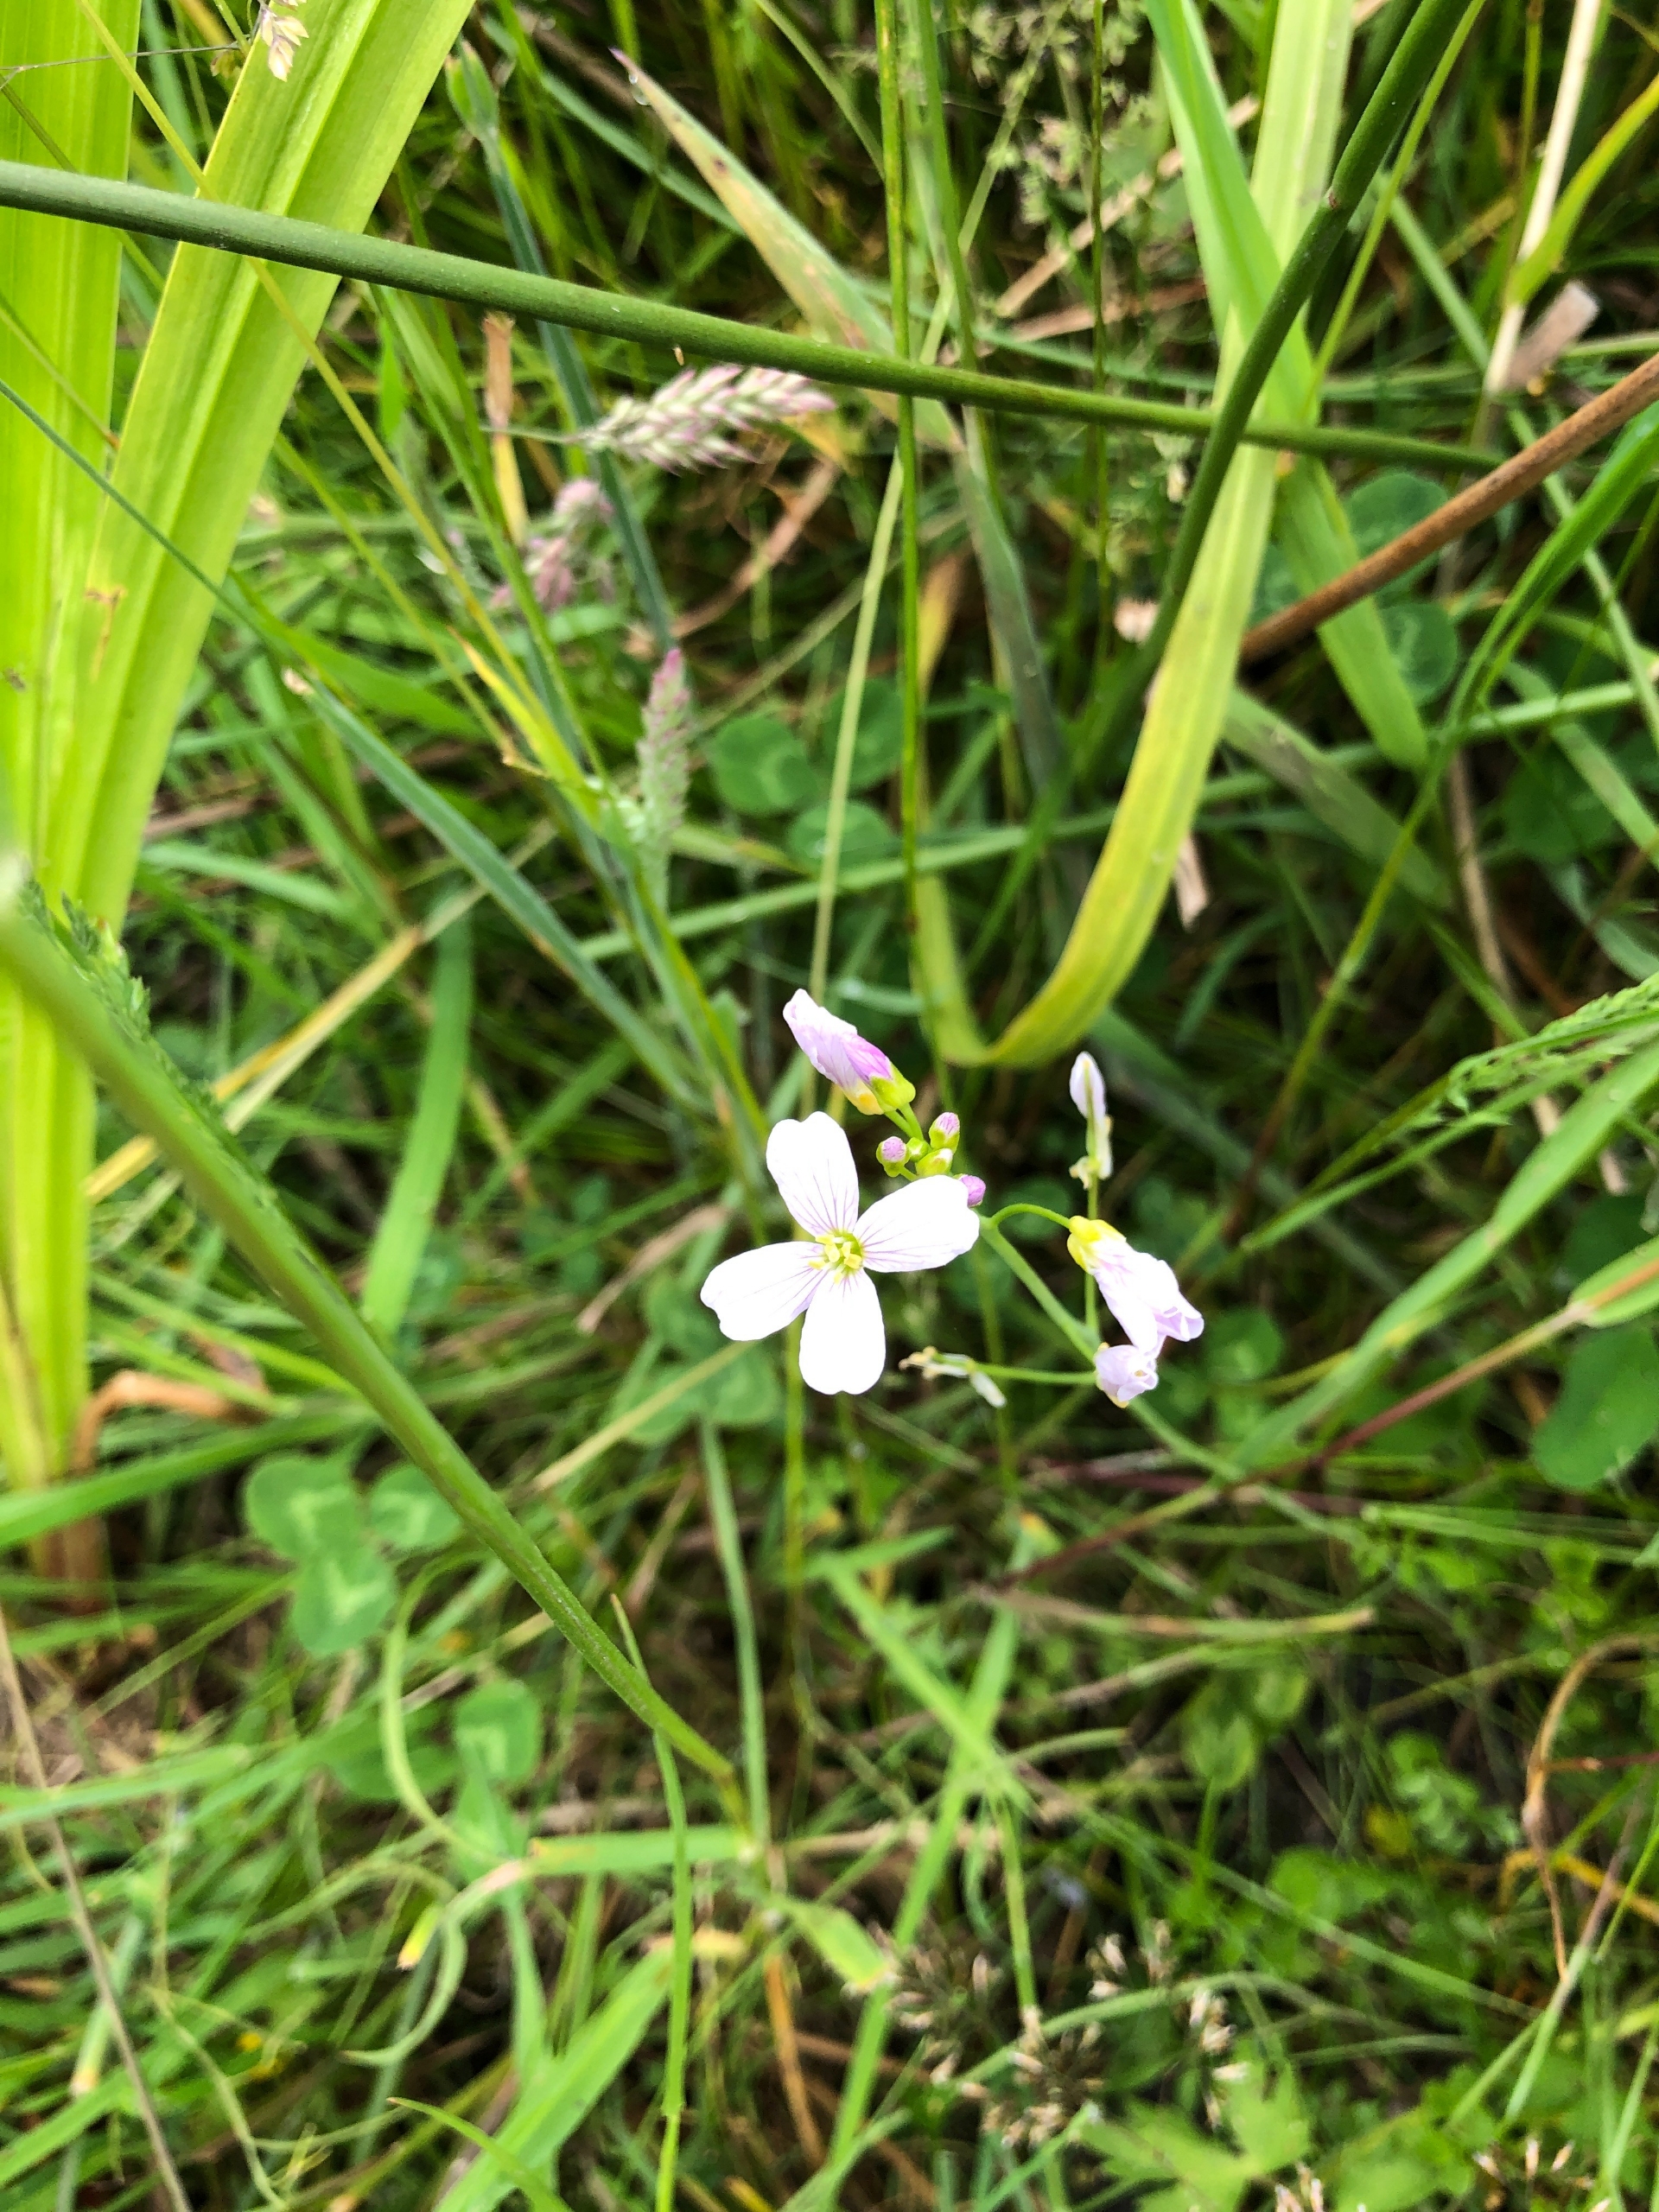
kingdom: Plantae
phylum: Tracheophyta
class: Magnoliopsida
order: Brassicales
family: Brassicaceae
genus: Cardamine
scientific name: Cardamine pratensis
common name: Engkarse
